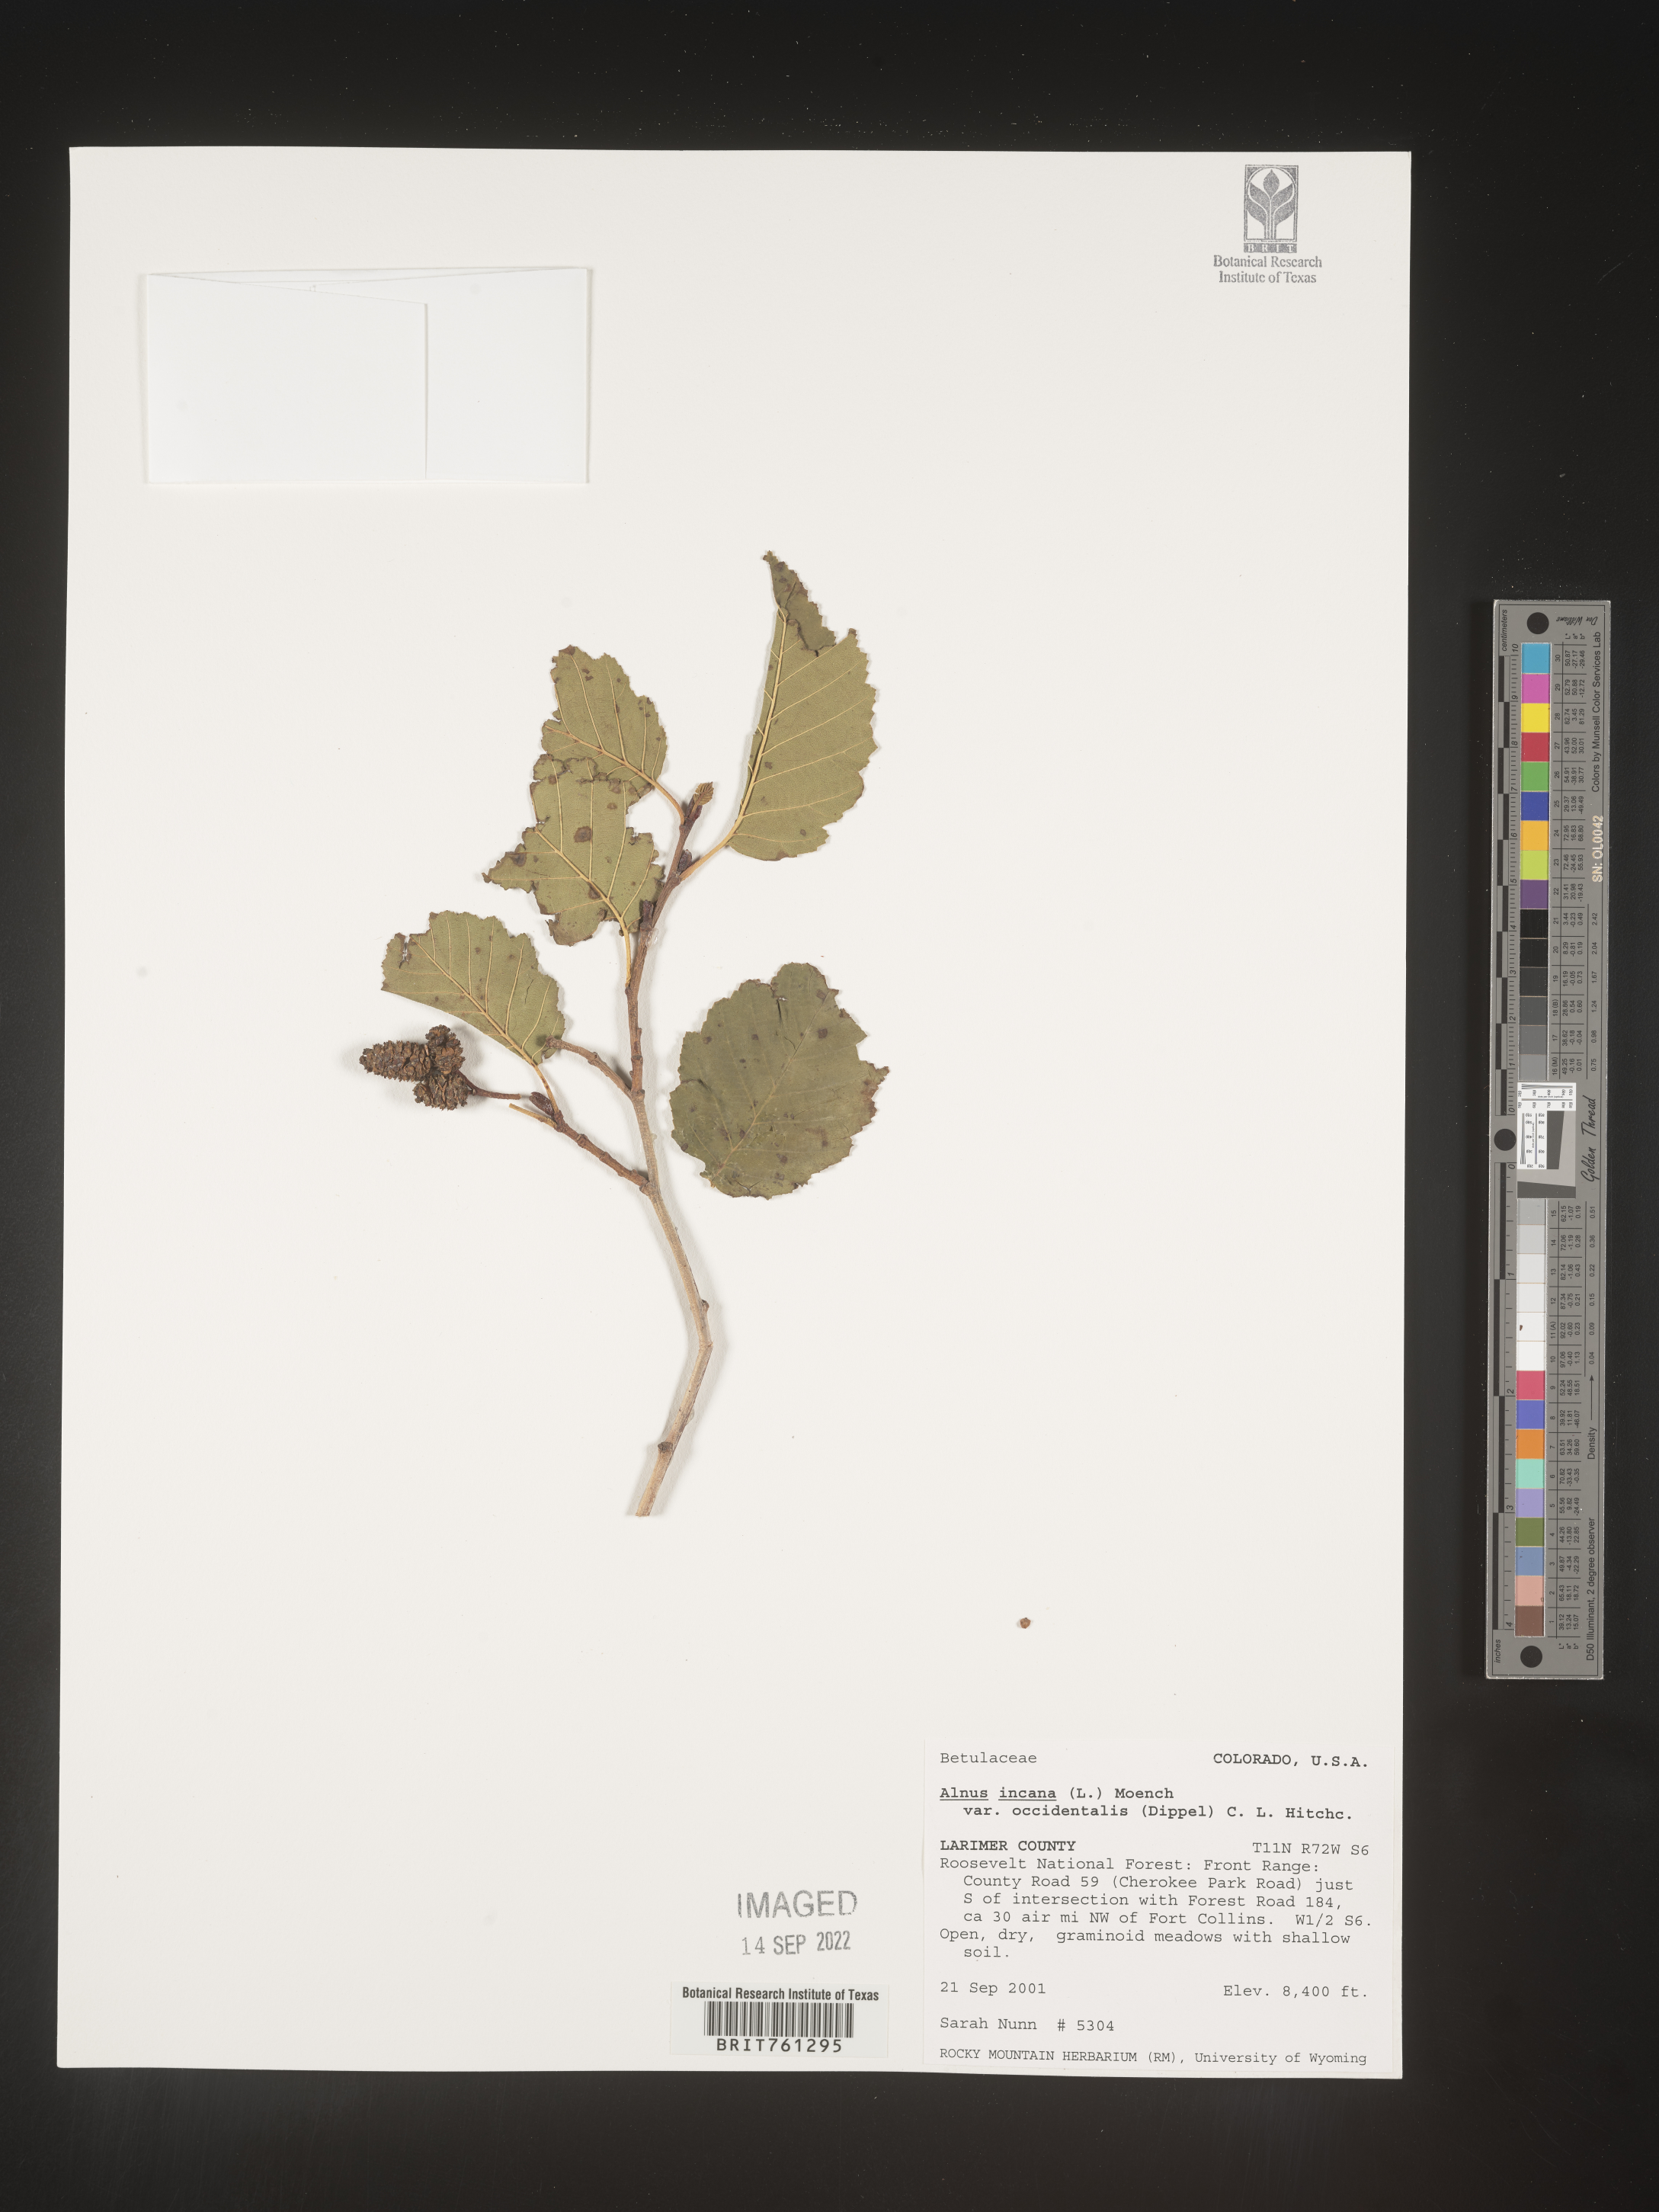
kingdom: Plantae
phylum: Tracheophyta
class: Magnoliopsida
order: Fagales
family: Betulaceae
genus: Alnus
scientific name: Alnus incana
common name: Grey alder
